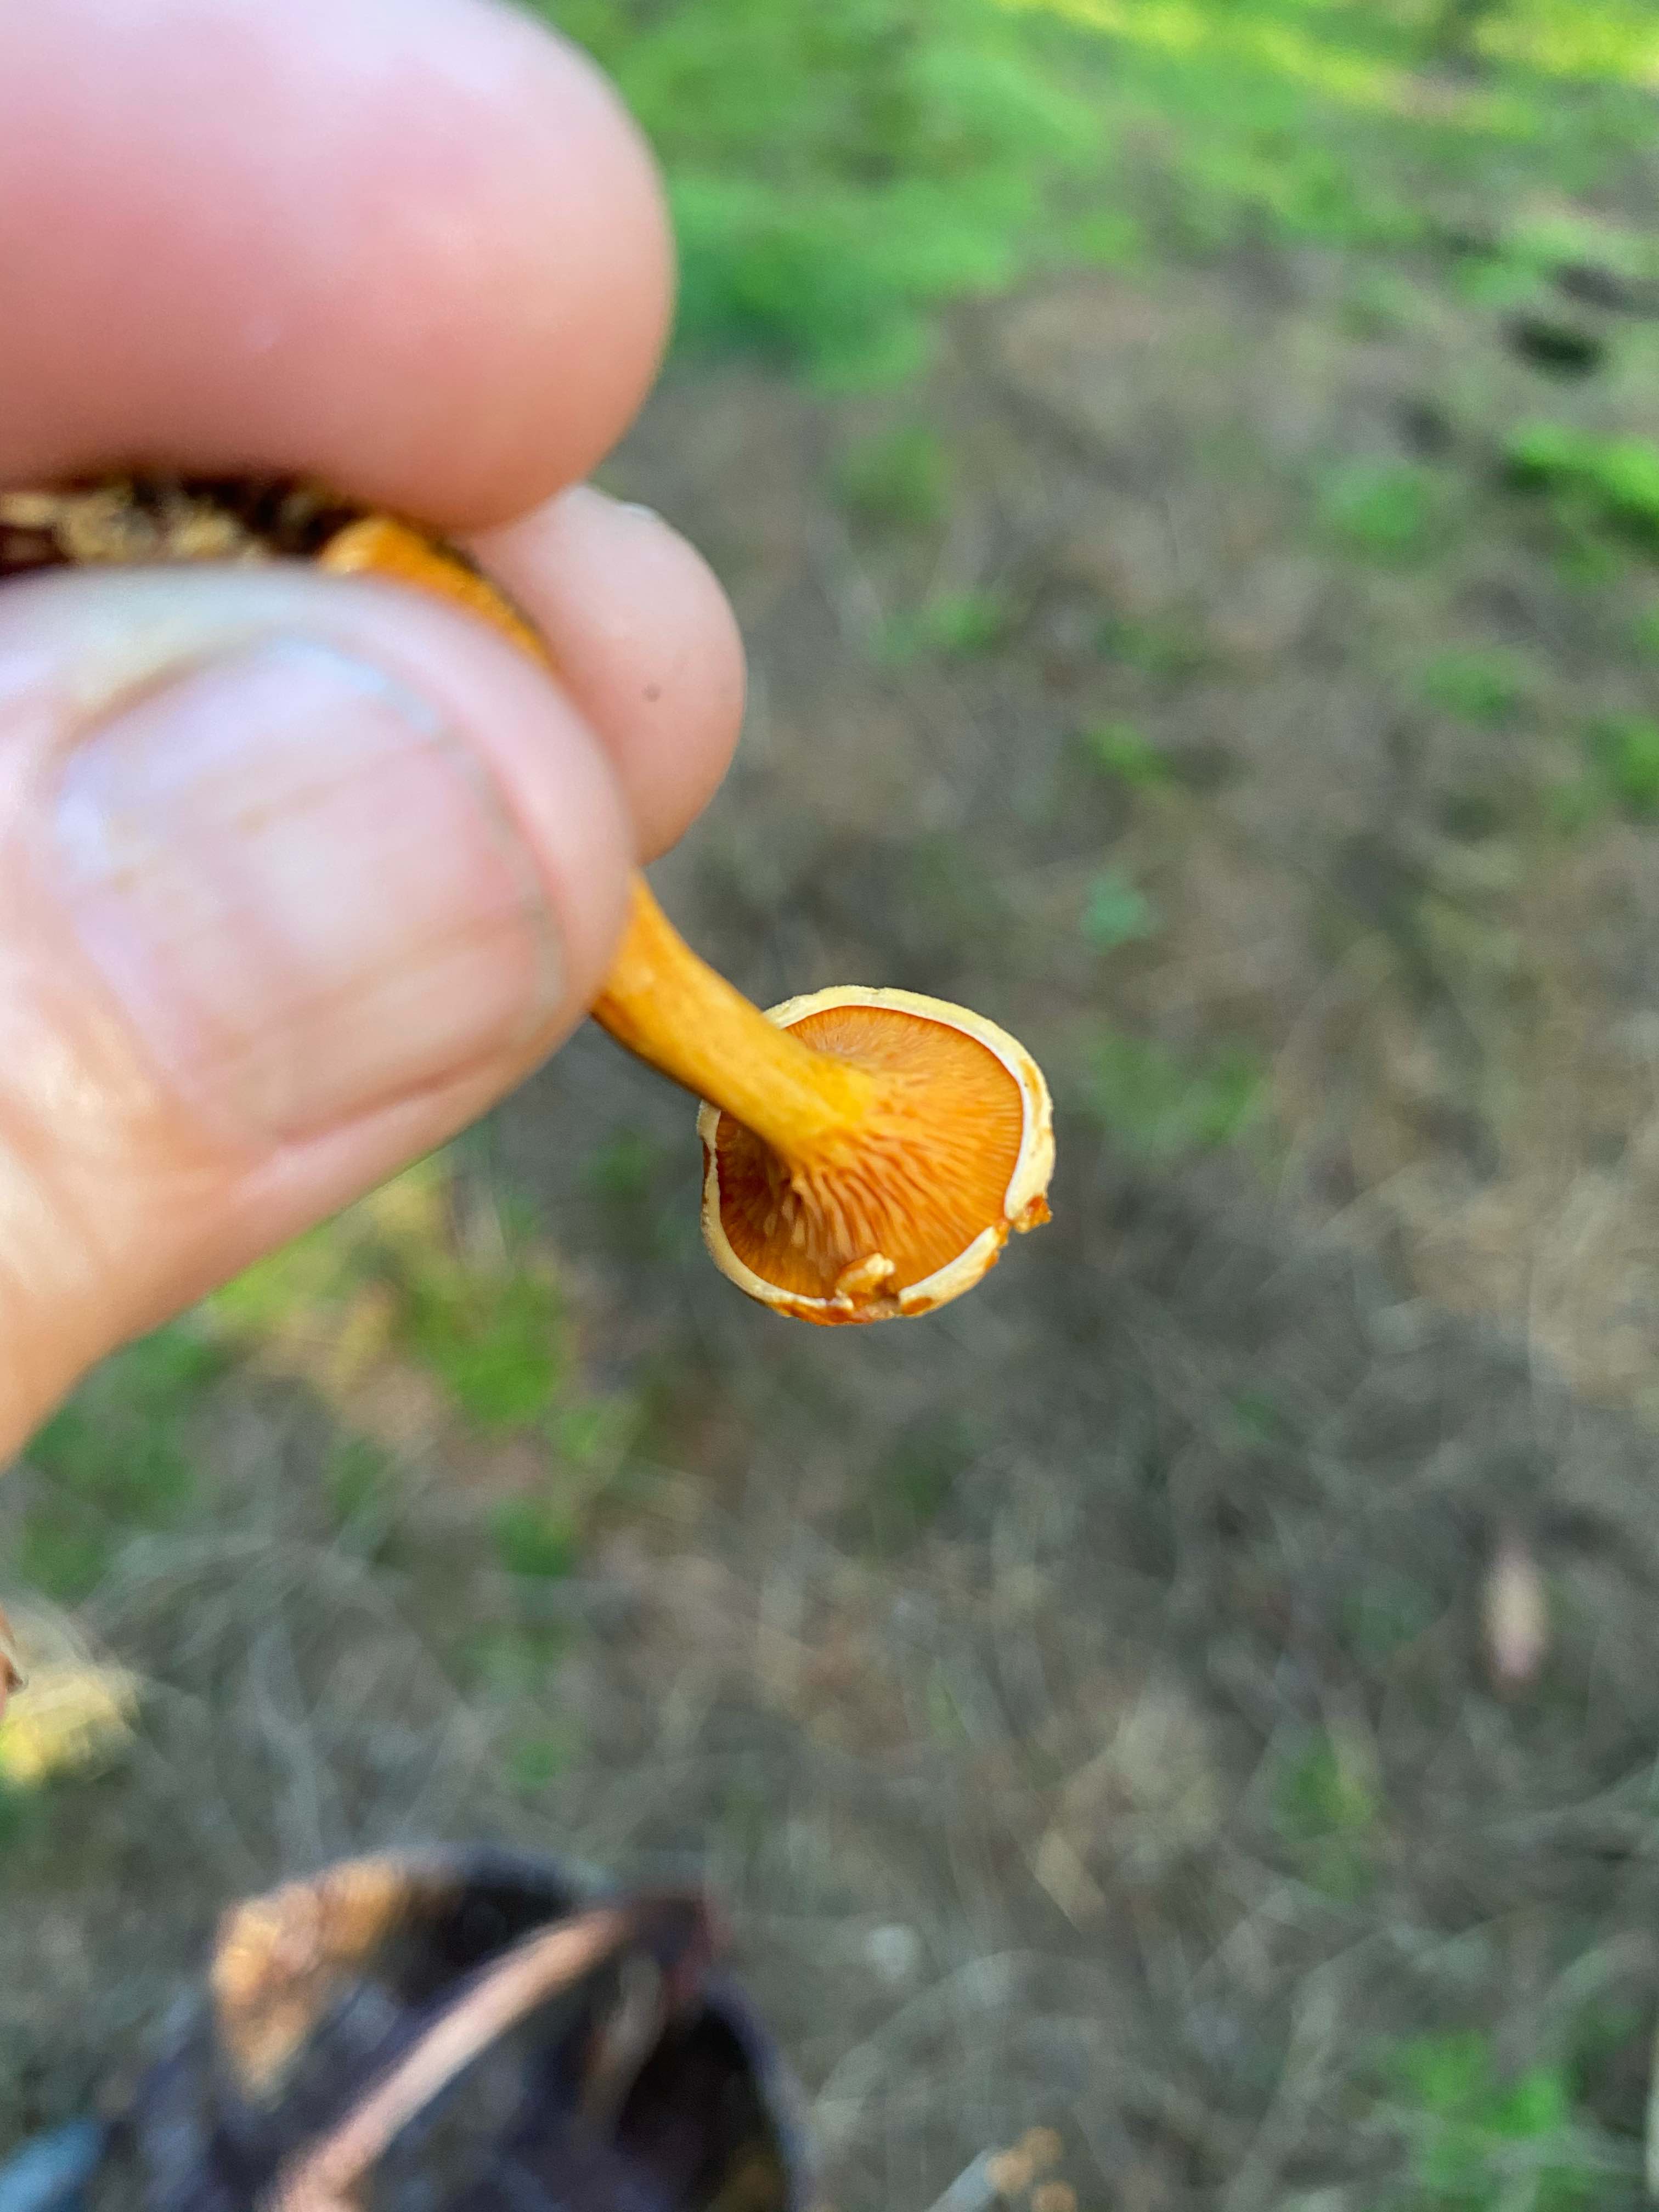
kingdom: Fungi
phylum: Basidiomycota
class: Agaricomycetes
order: Boletales
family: Hygrophoropsidaceae
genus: Hygrophoropsis
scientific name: Hygrophoropsis aurantiaca
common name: almindelig orangekantarel
